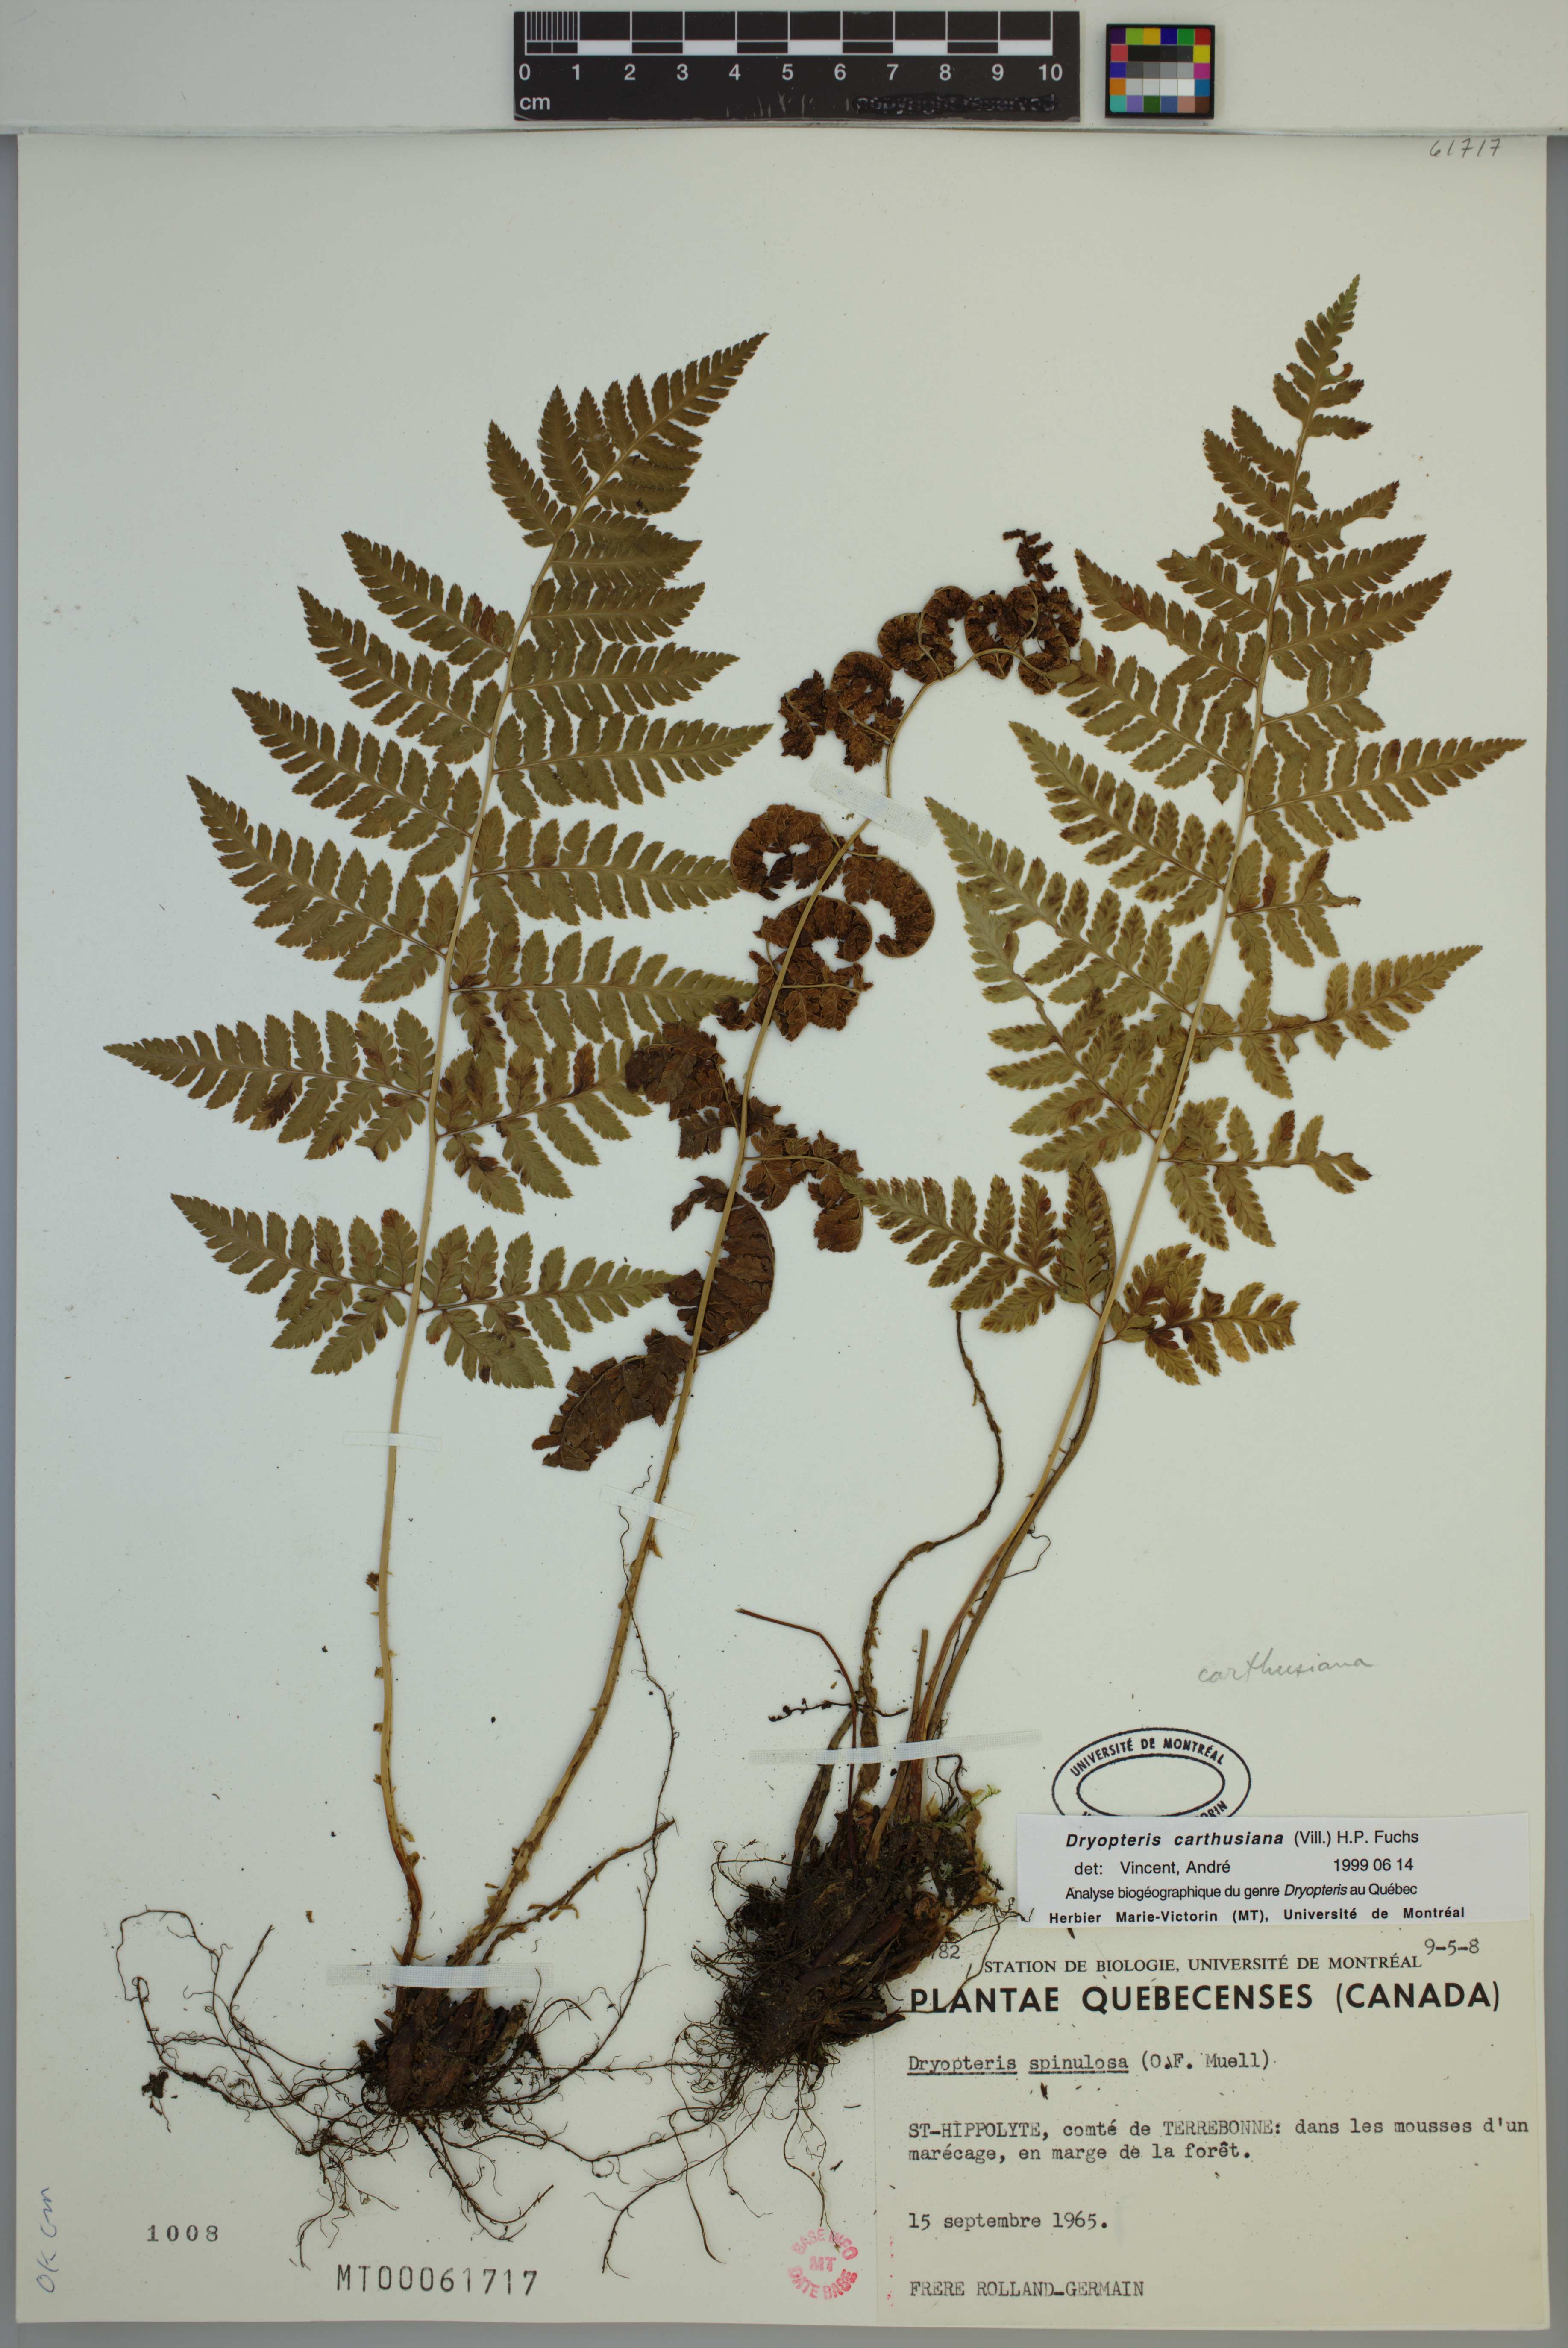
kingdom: Plantae
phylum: Tracheophyta
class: Polypodiopsida
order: Polypodiales
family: Dryopteridaceae
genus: Dryopteris
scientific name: Dryopteris carthusiana
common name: Narrow buckler-fern
